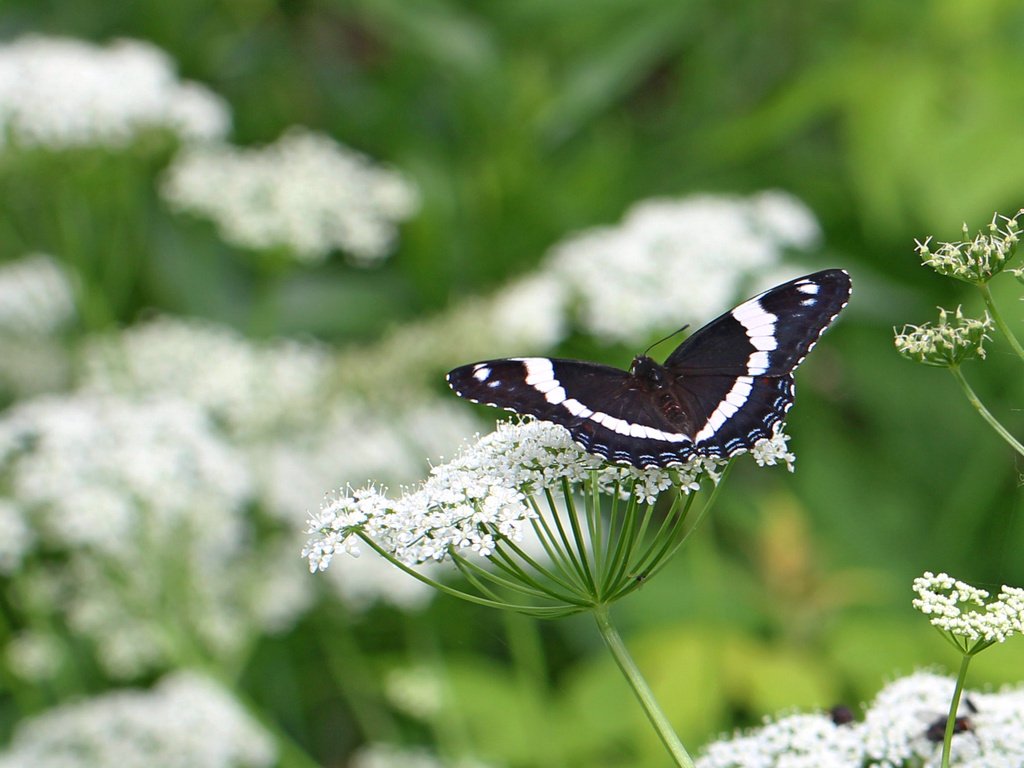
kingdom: Animalia
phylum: Arthropoda
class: Insecta
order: Lepidoptera
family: Nymphalidae
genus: Limenitis
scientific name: Limenitis arthemis
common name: Red-spotted Admiral
